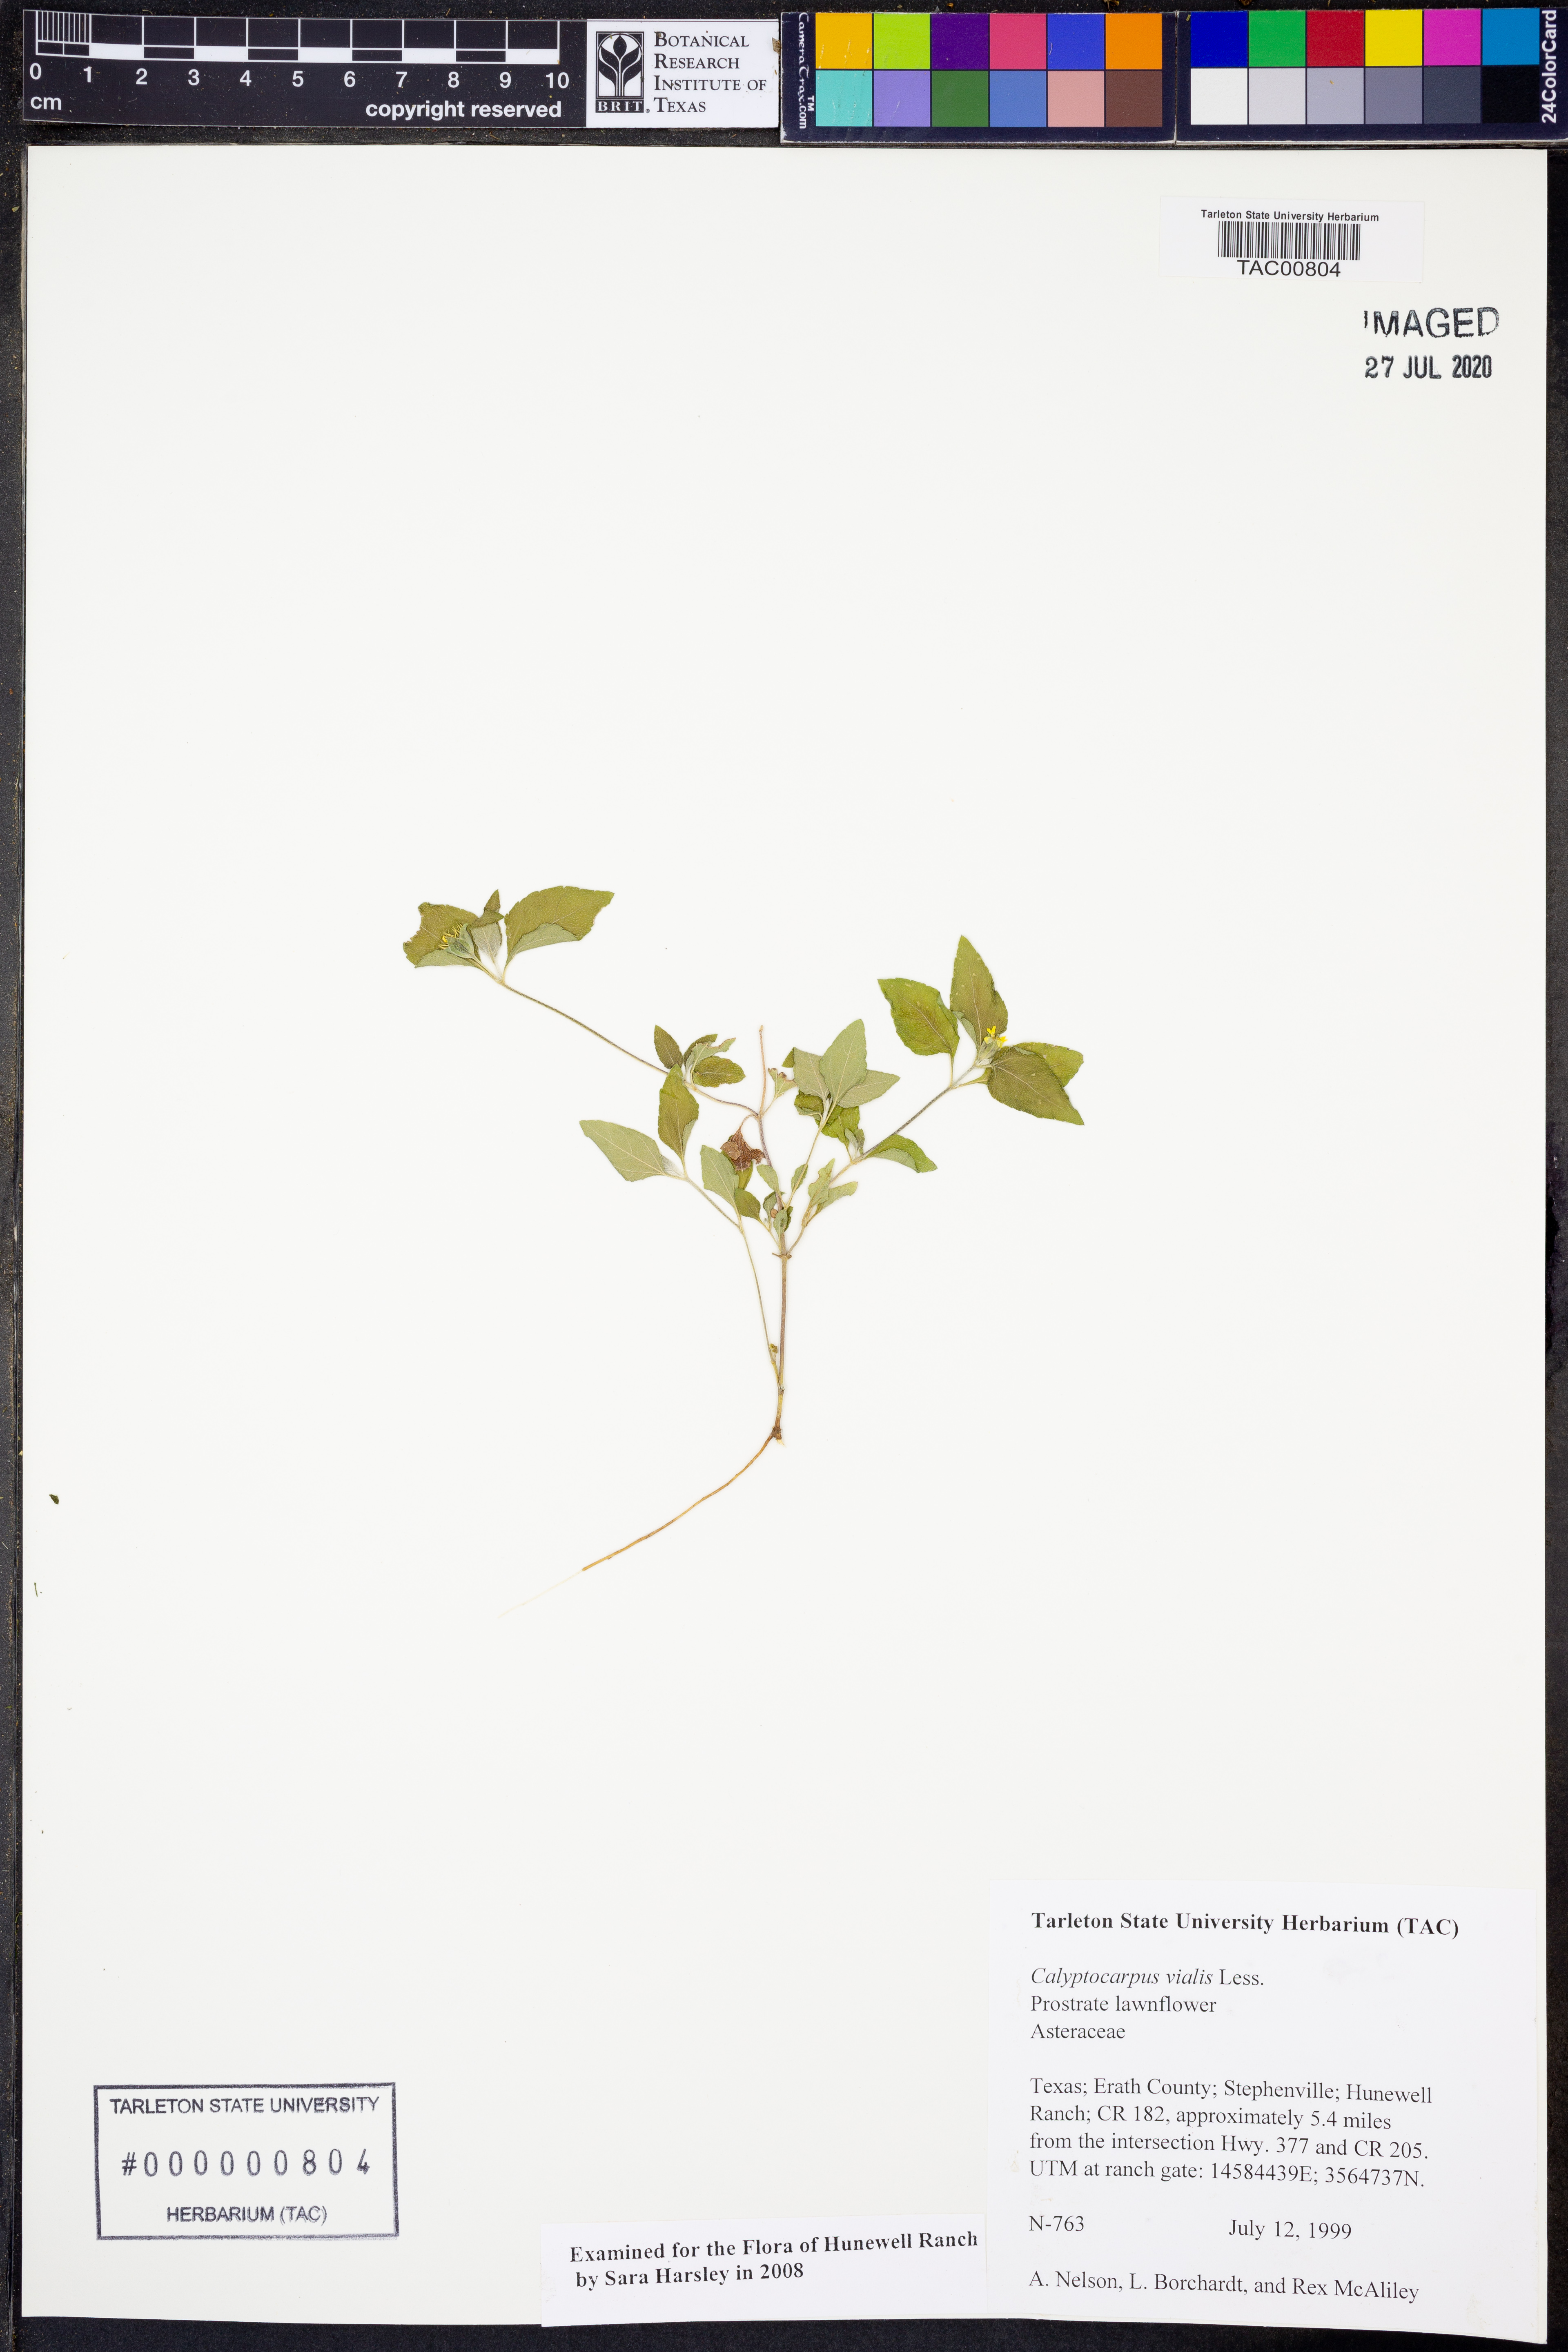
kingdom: Plantae
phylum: Tracheophyta
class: Magnoliopsida
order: Asterales
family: Asteraceae
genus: Calyptocarpus
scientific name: Calyptocarpus vialis
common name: Straggler daisy
